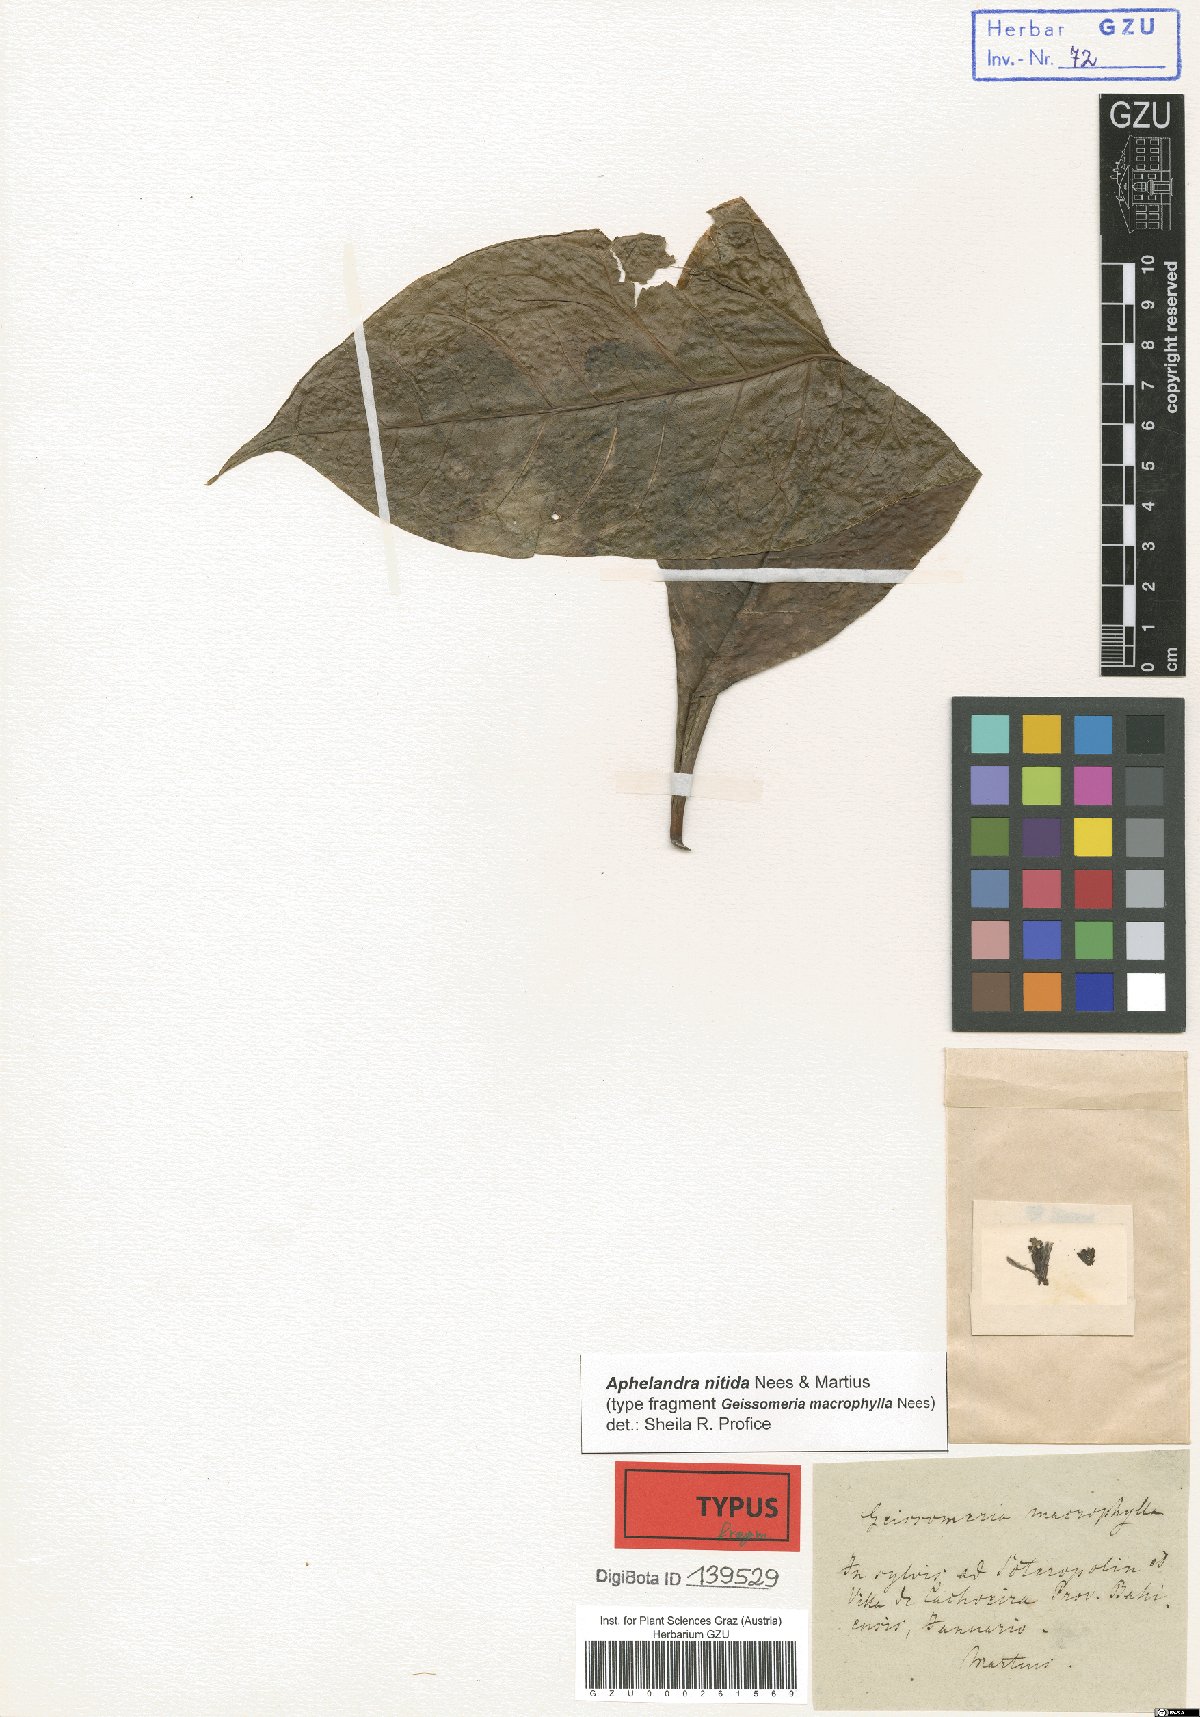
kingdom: Plantae
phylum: Tracheophyta
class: Magnoliopsida
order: Lamiales
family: Acanthaceae
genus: Aphelandra
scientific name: Aphelandra nitida
